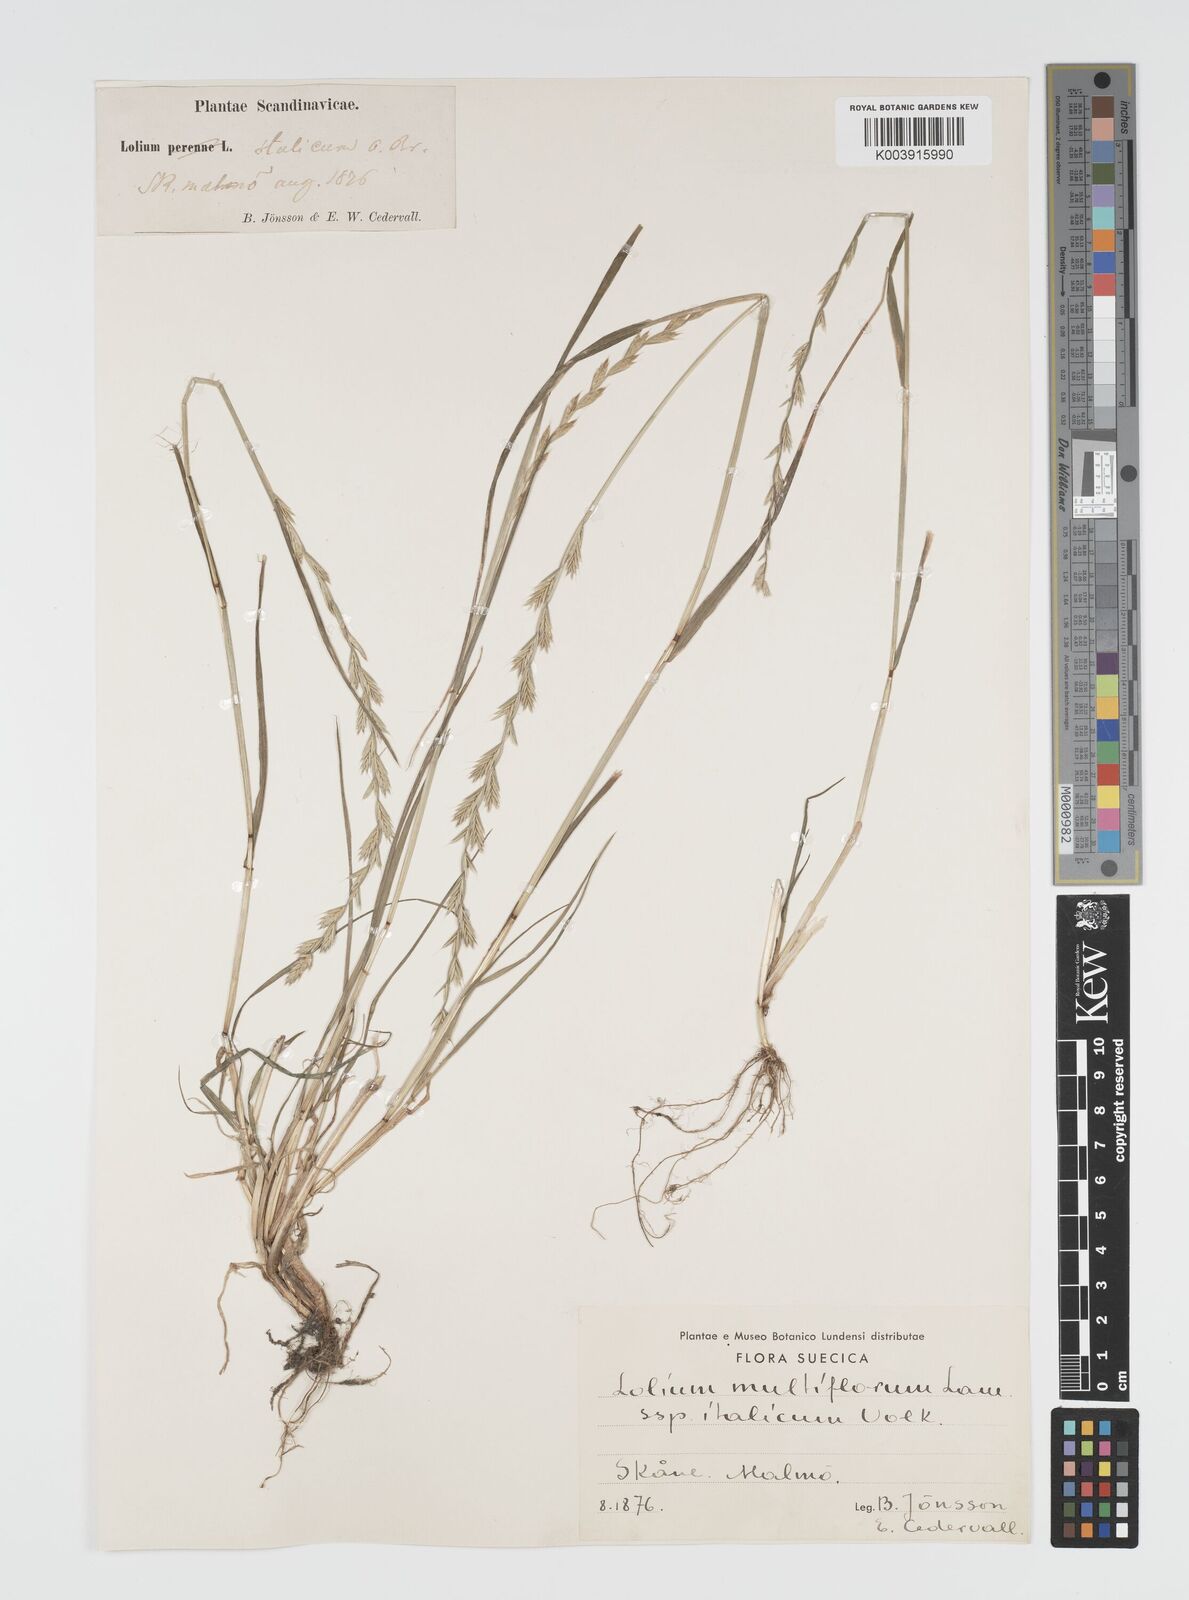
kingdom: Plantae
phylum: Tracheophyta
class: Liliopsida
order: Poales
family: Poaceae
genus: Lolium
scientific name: Lolium multiflorum
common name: Annual ryegrass
